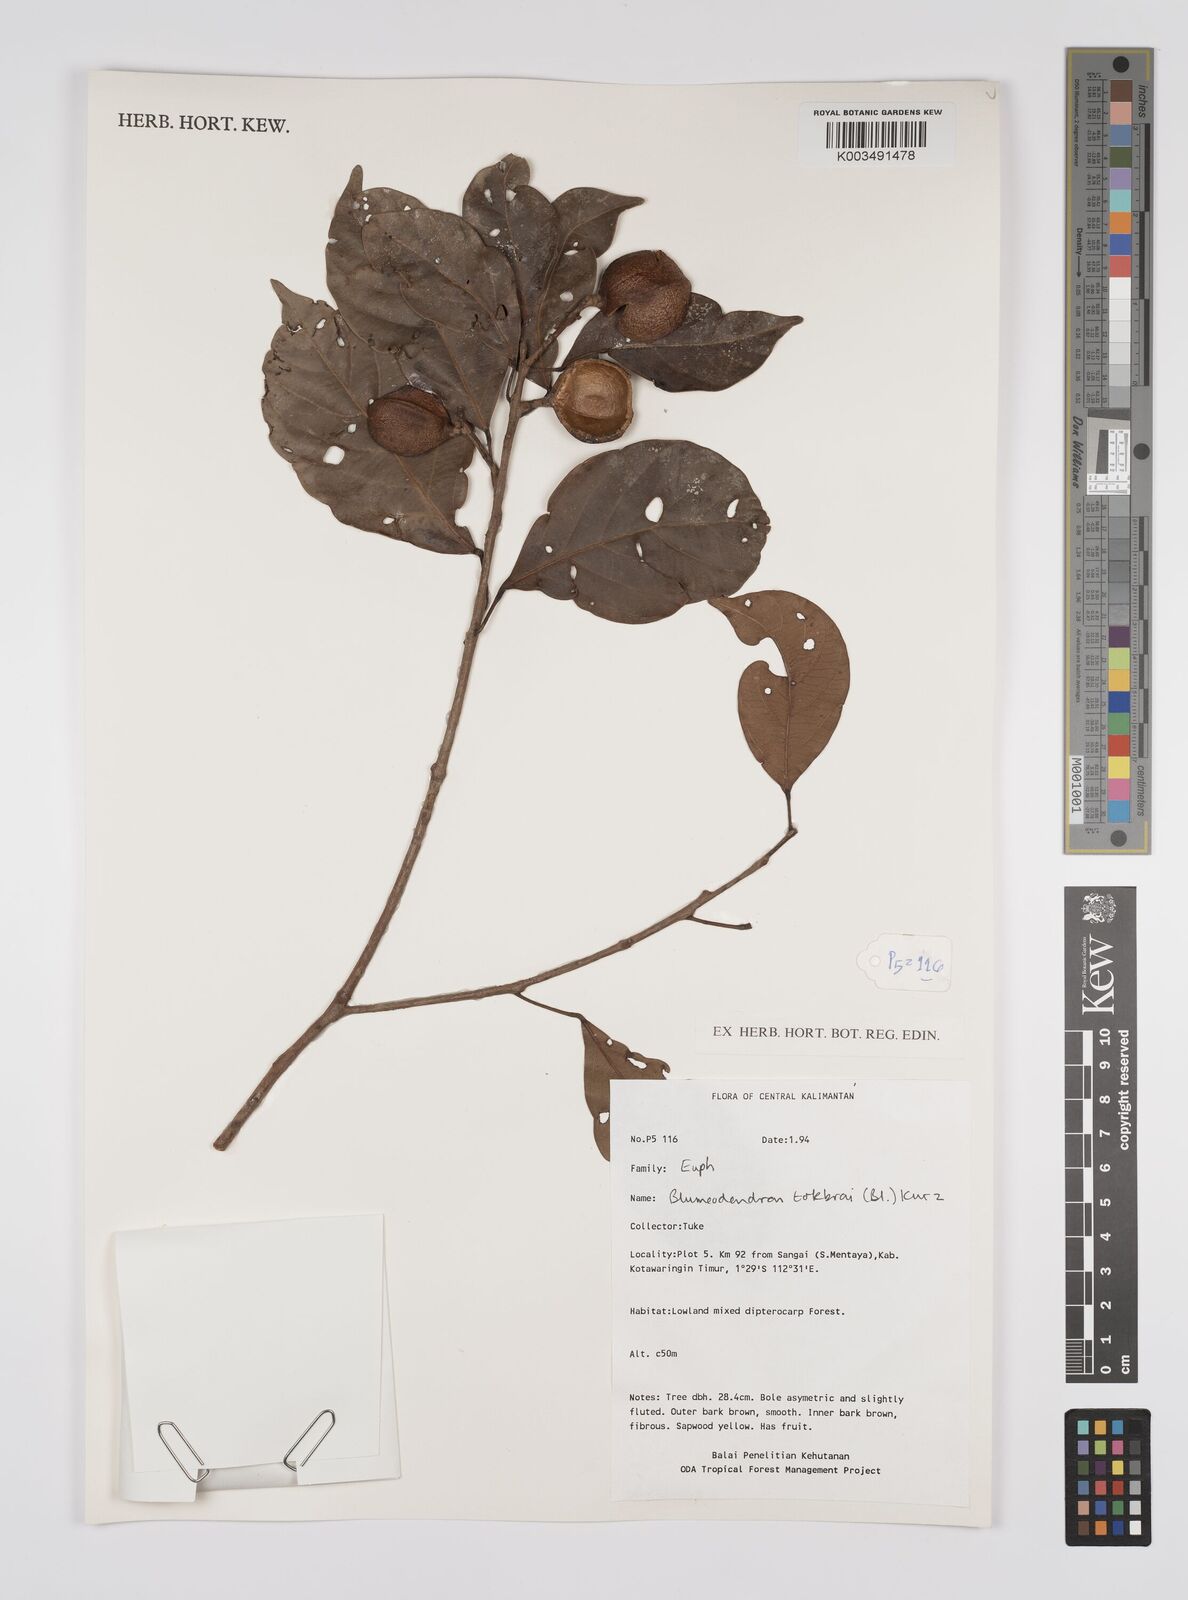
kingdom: Plantae
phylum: Tracheophyta
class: Magnoliopsida
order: Malpighiales
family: Euphorbiaceae
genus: Blumeodendron
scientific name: Blumeodendron tokbrai
